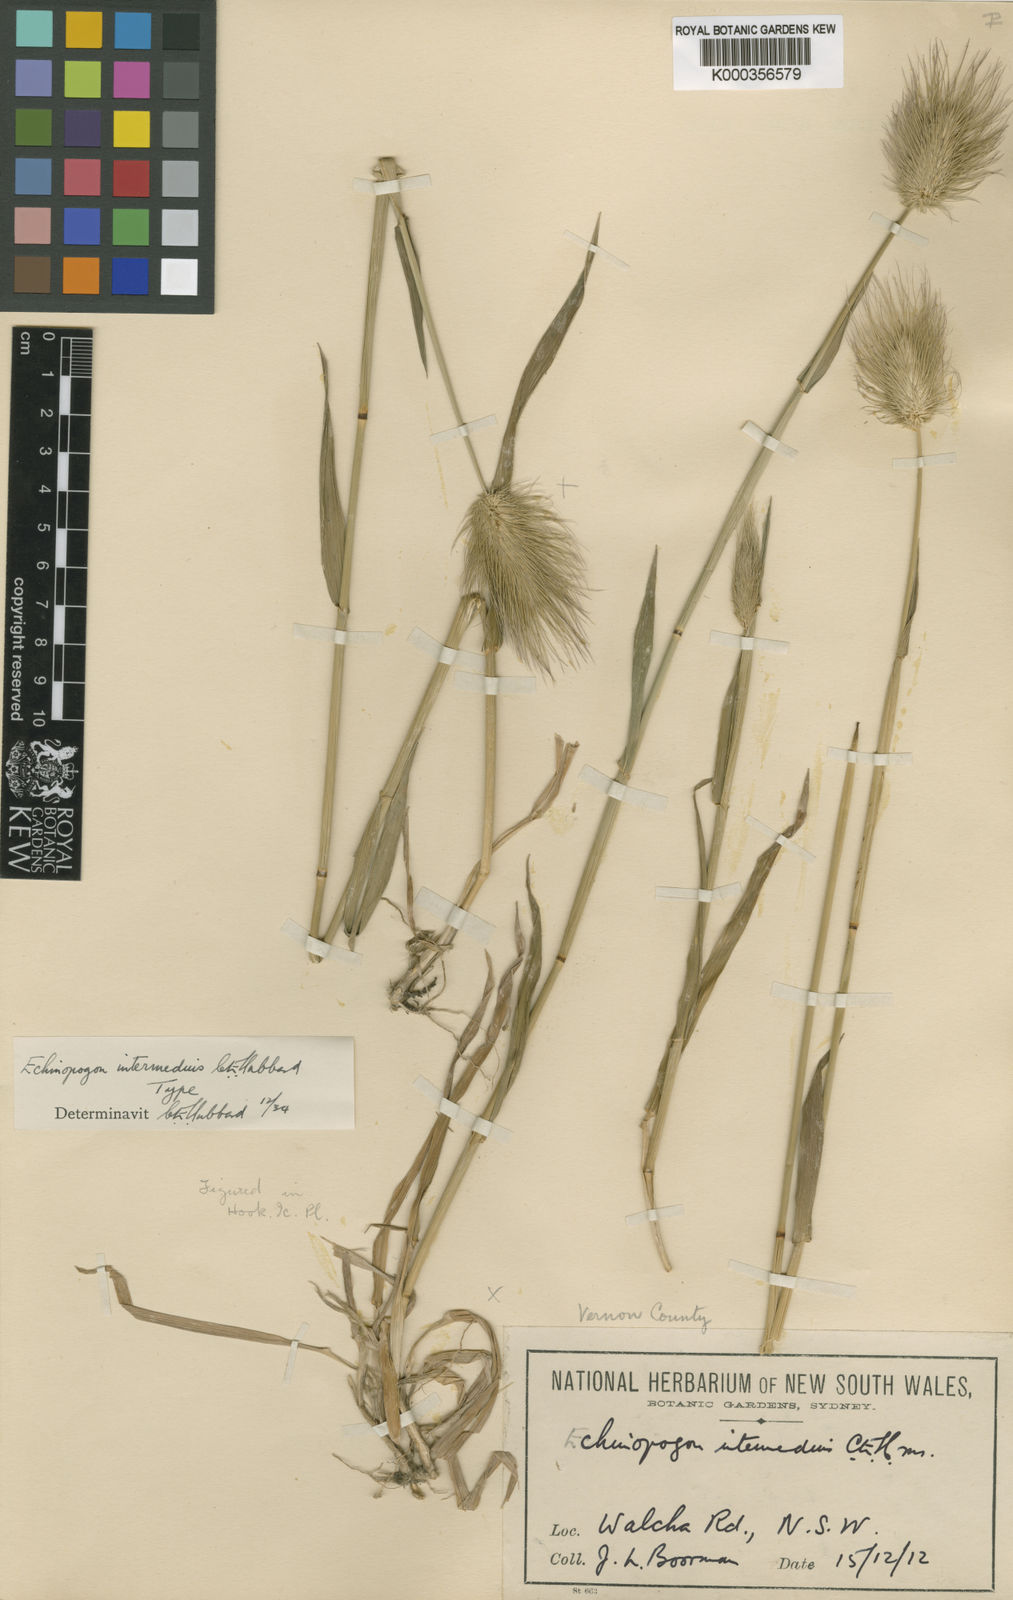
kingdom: Plantae
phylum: Tracheophyta
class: Liliopsida
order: Poales
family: Poaceae
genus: Echinopogon
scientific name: Echinopogon intermedius
